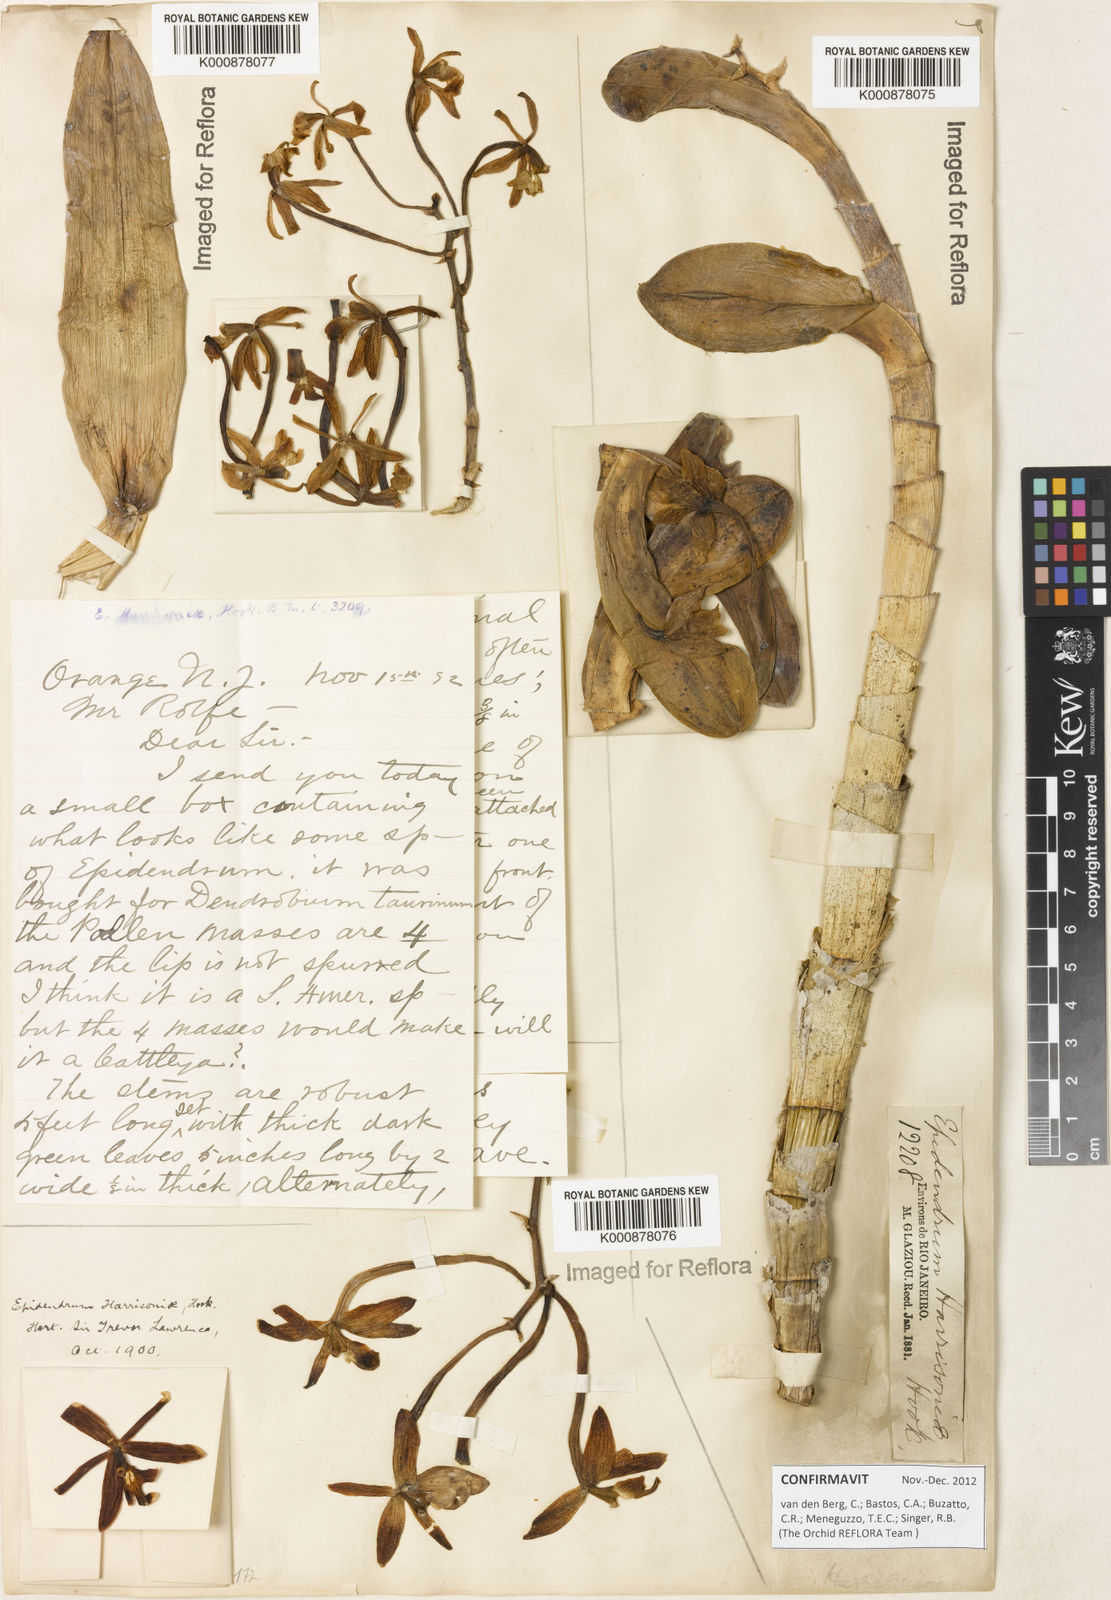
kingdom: Plantae
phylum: Tracheophyta
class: Liliopsida
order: Asparagales
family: Orchidaceae
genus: Epidendrum
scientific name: Epidendrum harrisoniae
